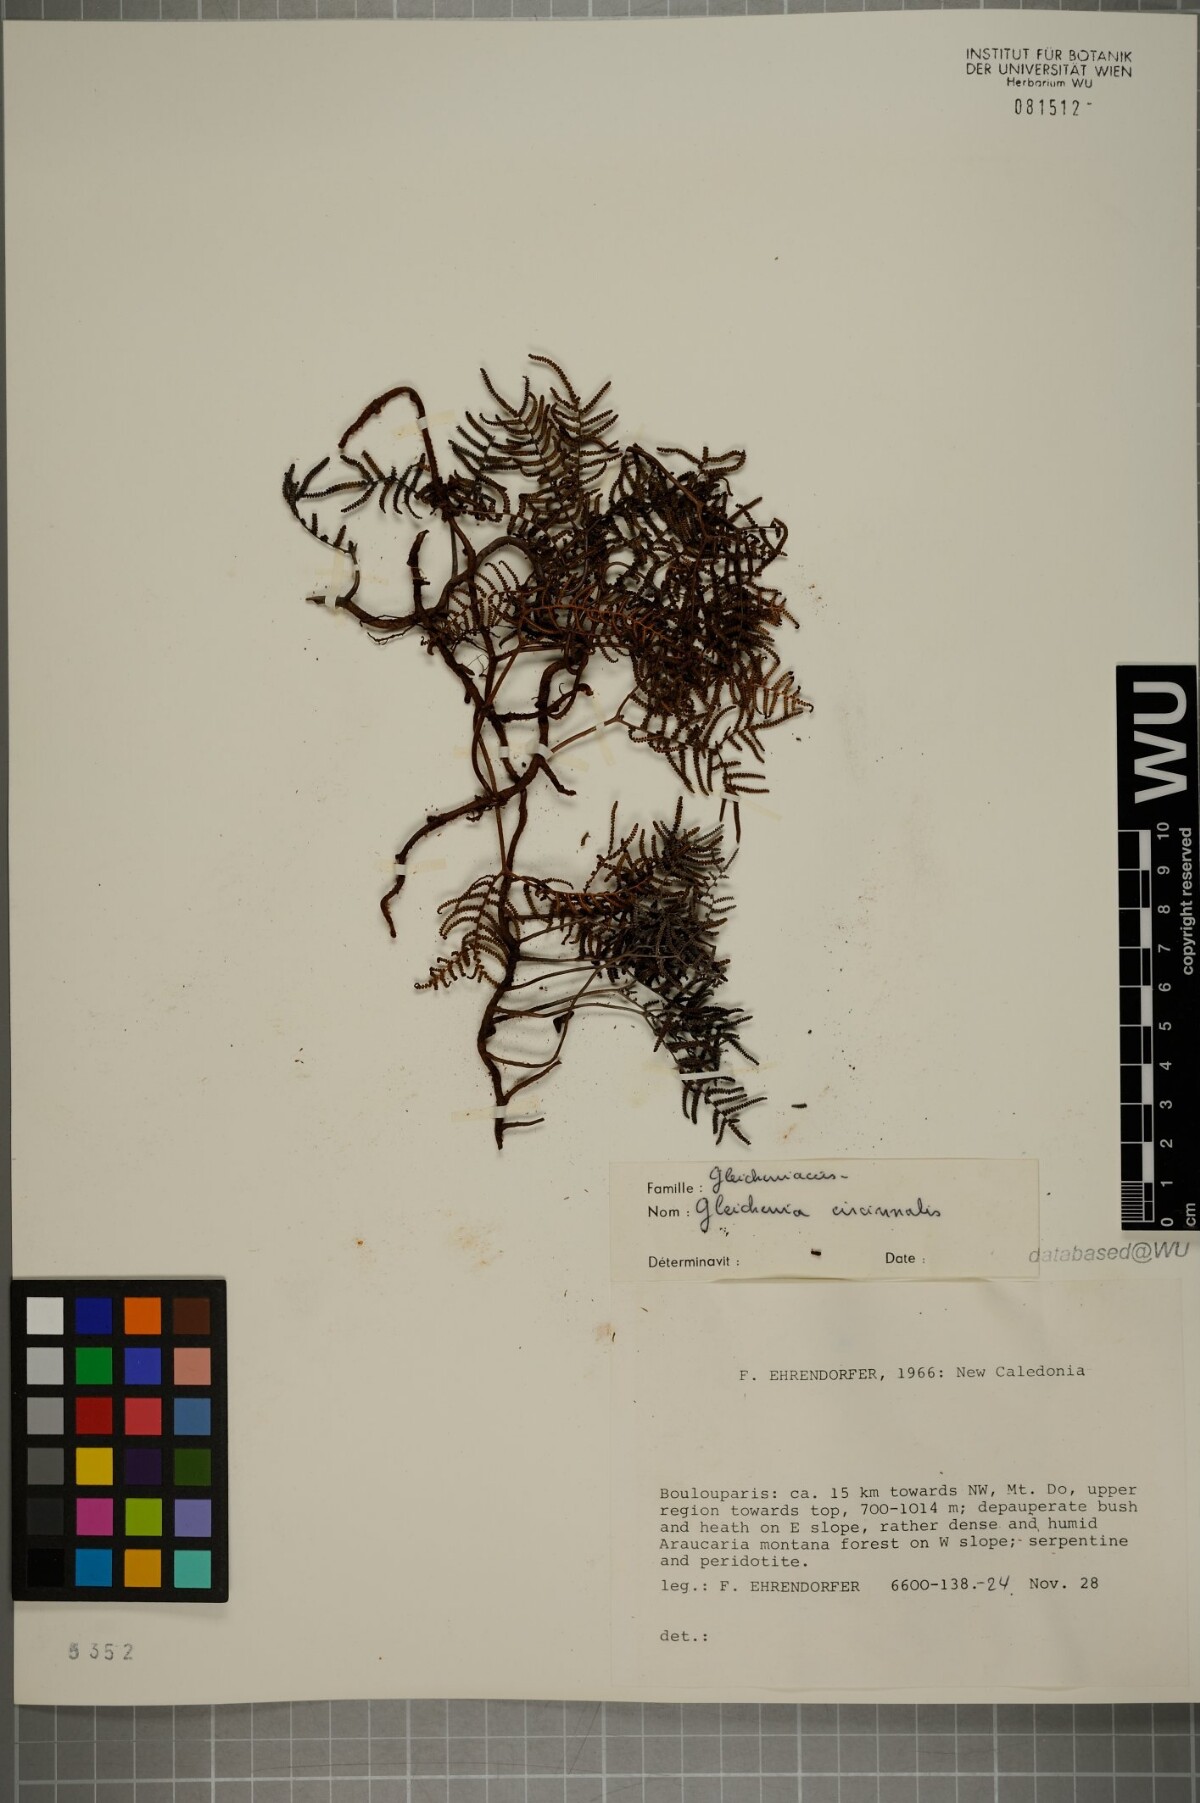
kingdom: Plantae
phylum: Tracheophyta
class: Polypodiopsida
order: Gleicheniales
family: Gleicheniaceae
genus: Gleichenia
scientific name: Gleichenia circinnata
